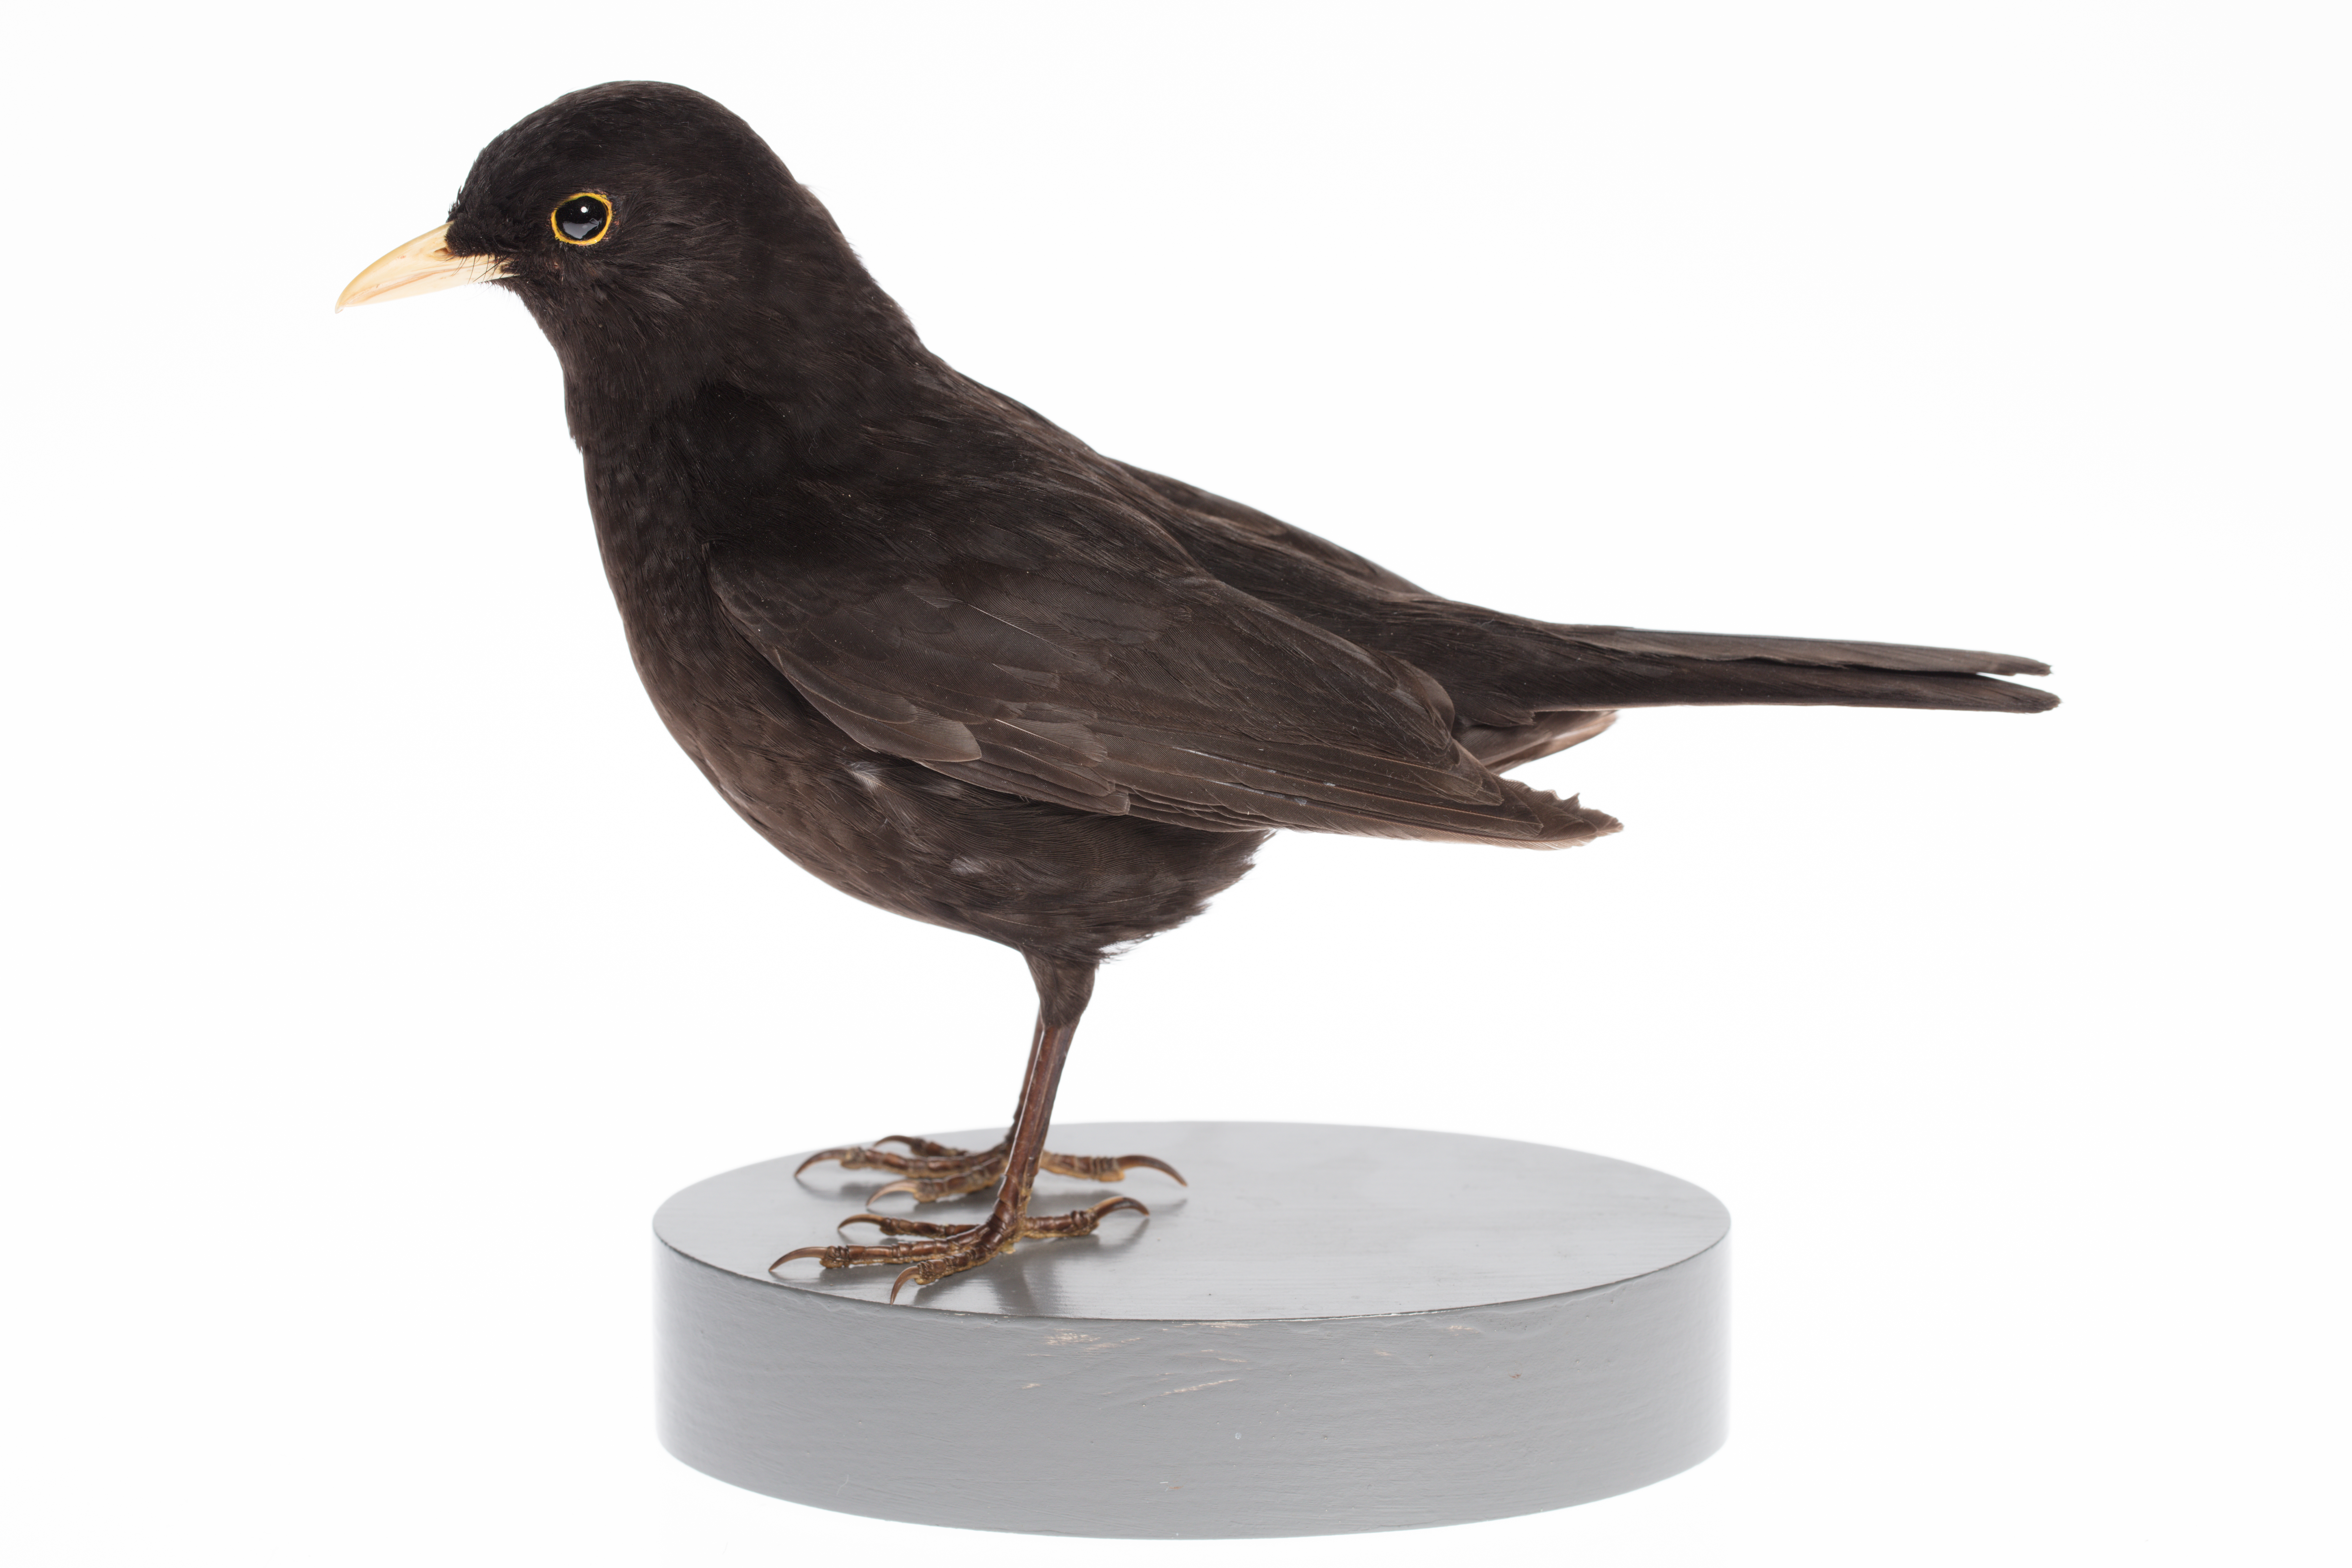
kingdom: Animalia
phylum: Chordata
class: Aves
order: Passeriformes
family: Turdidae
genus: Turdus
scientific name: Turdus merula
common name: Common blackbird
